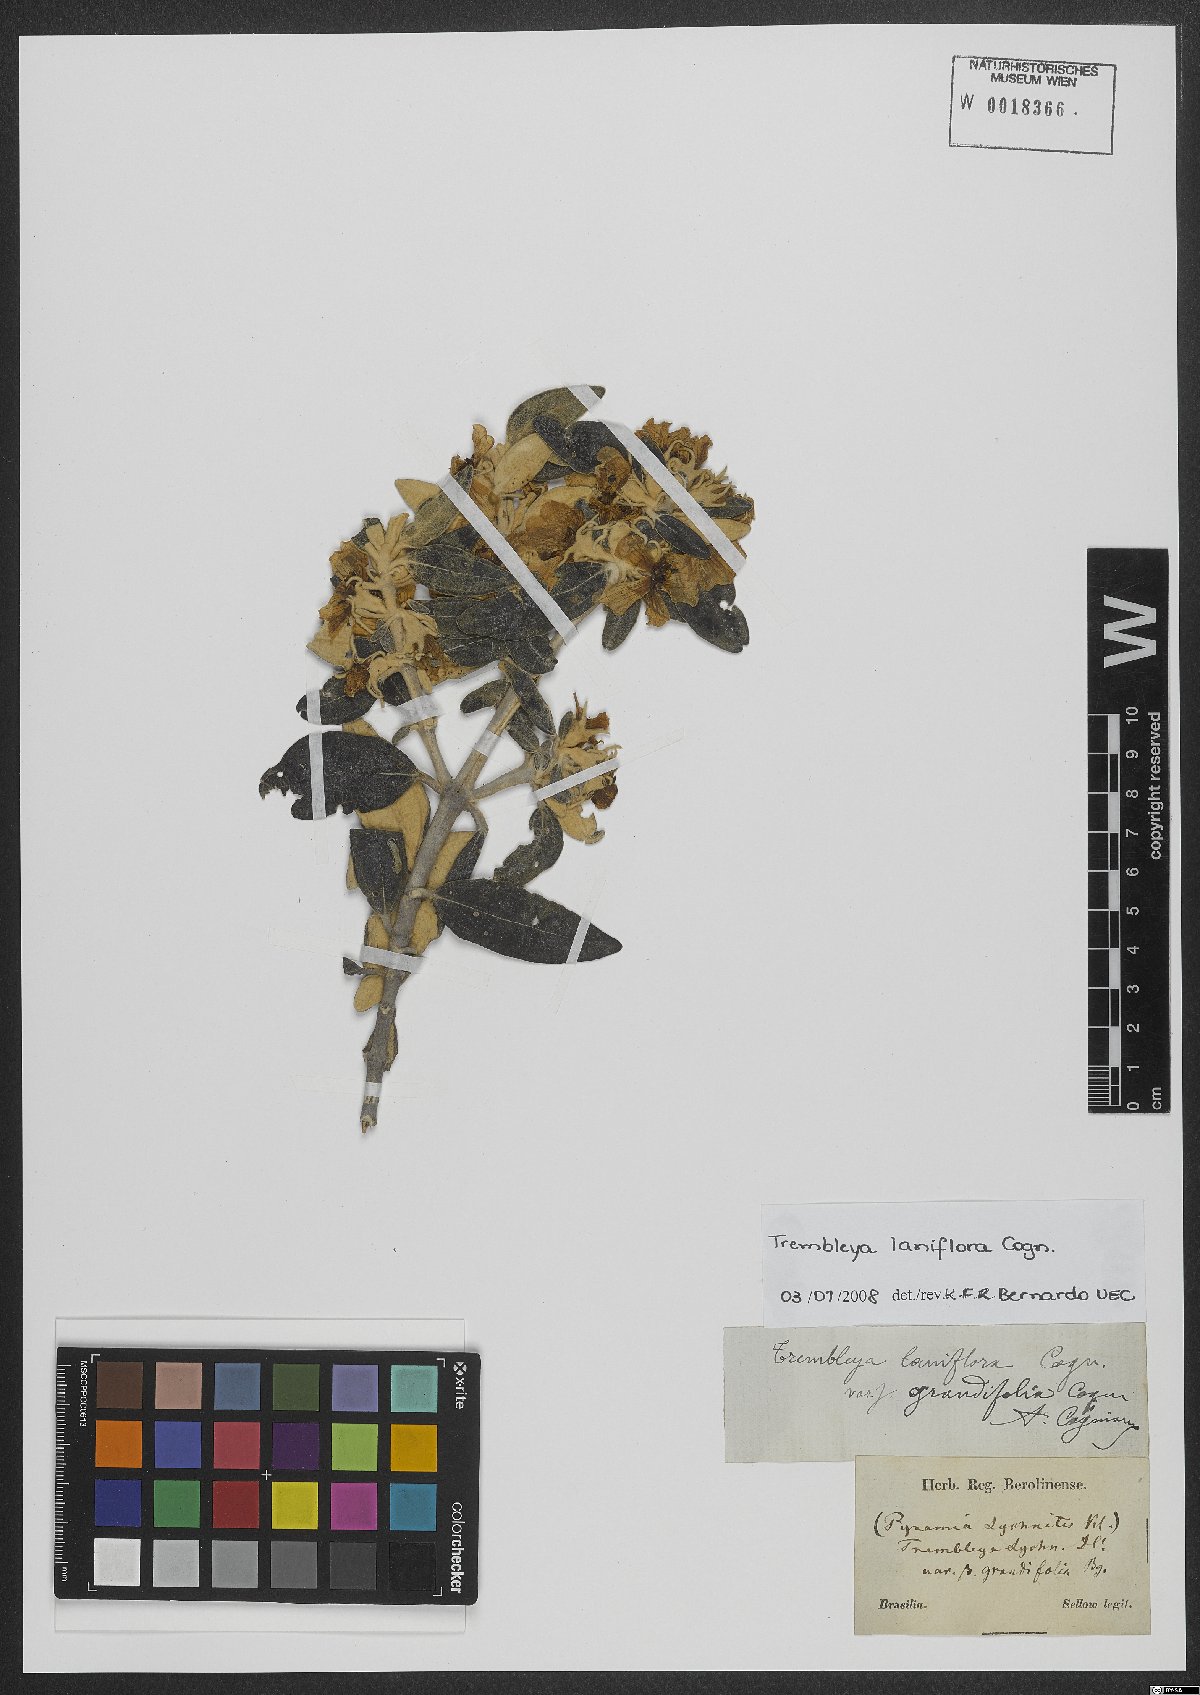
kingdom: Plantae
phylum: Tracheophyta
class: Magnoliopsida
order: Myrtales
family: Melastomataceae
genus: Microlicia
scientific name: Microlicia laniflora
